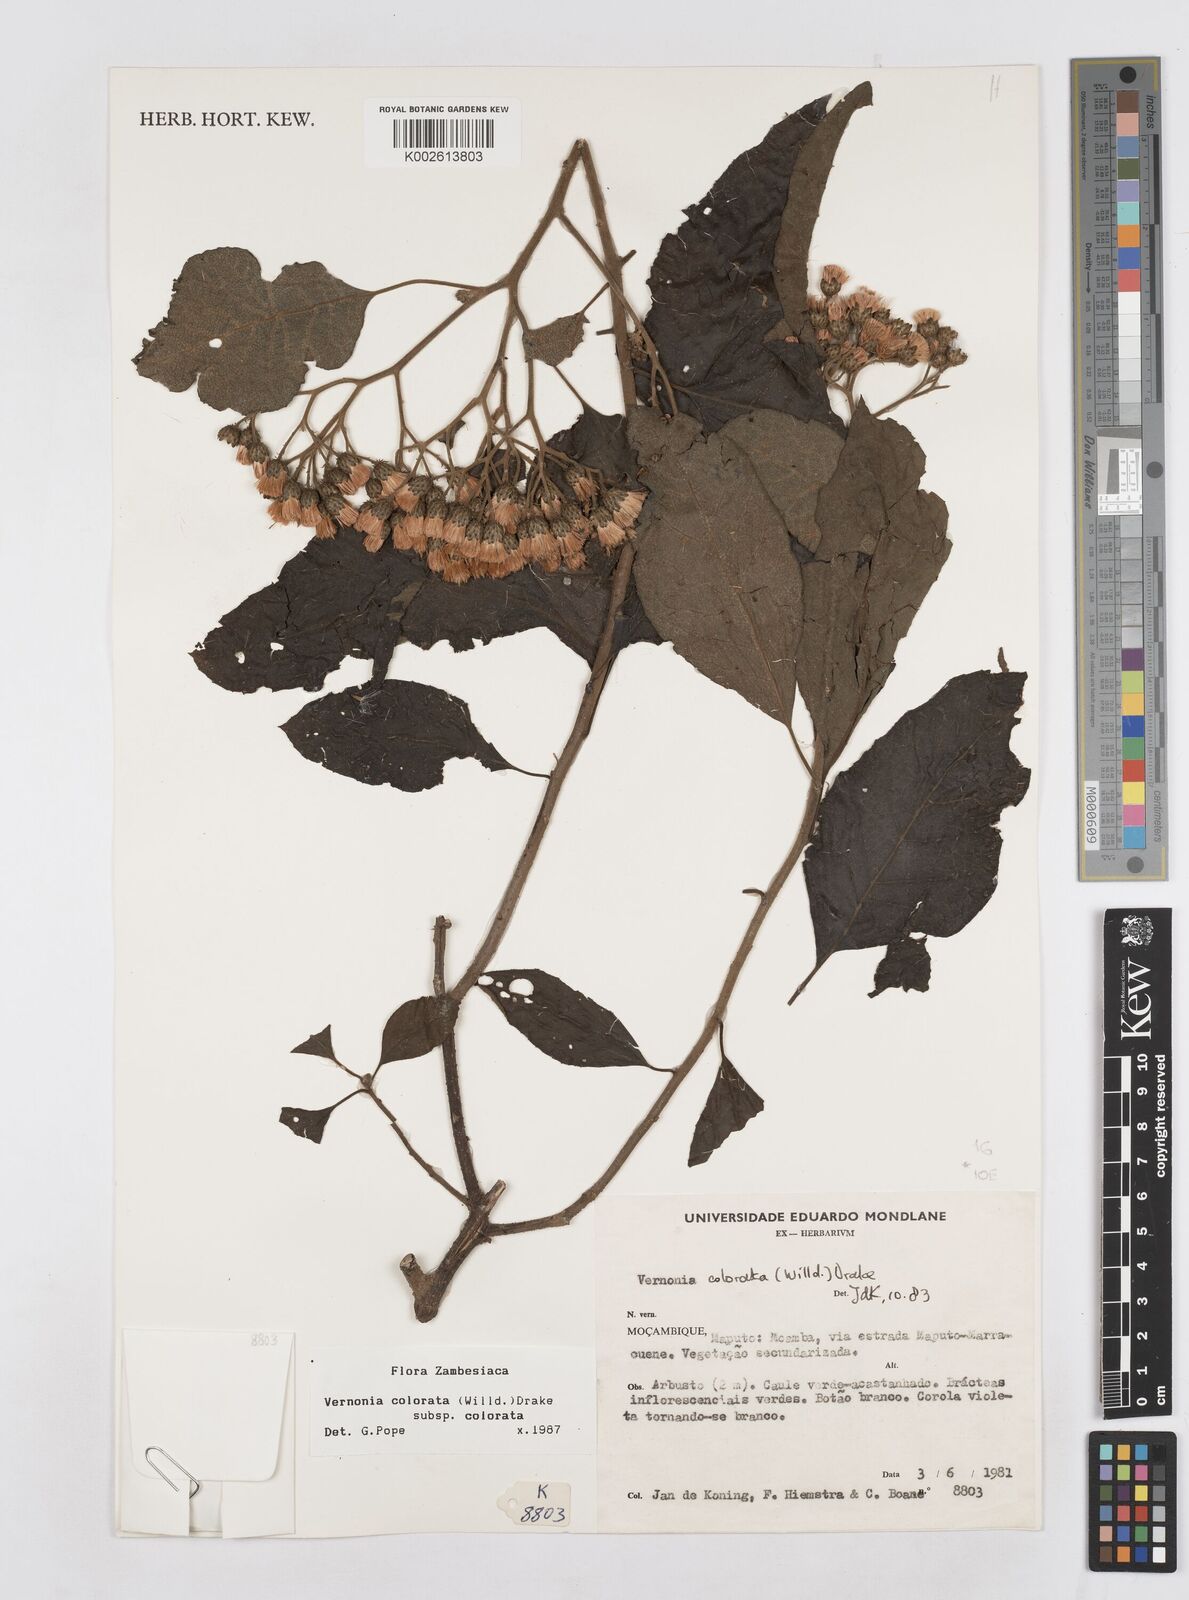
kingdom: Plantae
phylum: Tracheophyta
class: Magnoliopsida
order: Asterales
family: Asteraceae
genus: Vernonia
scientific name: Vernonia colorata
